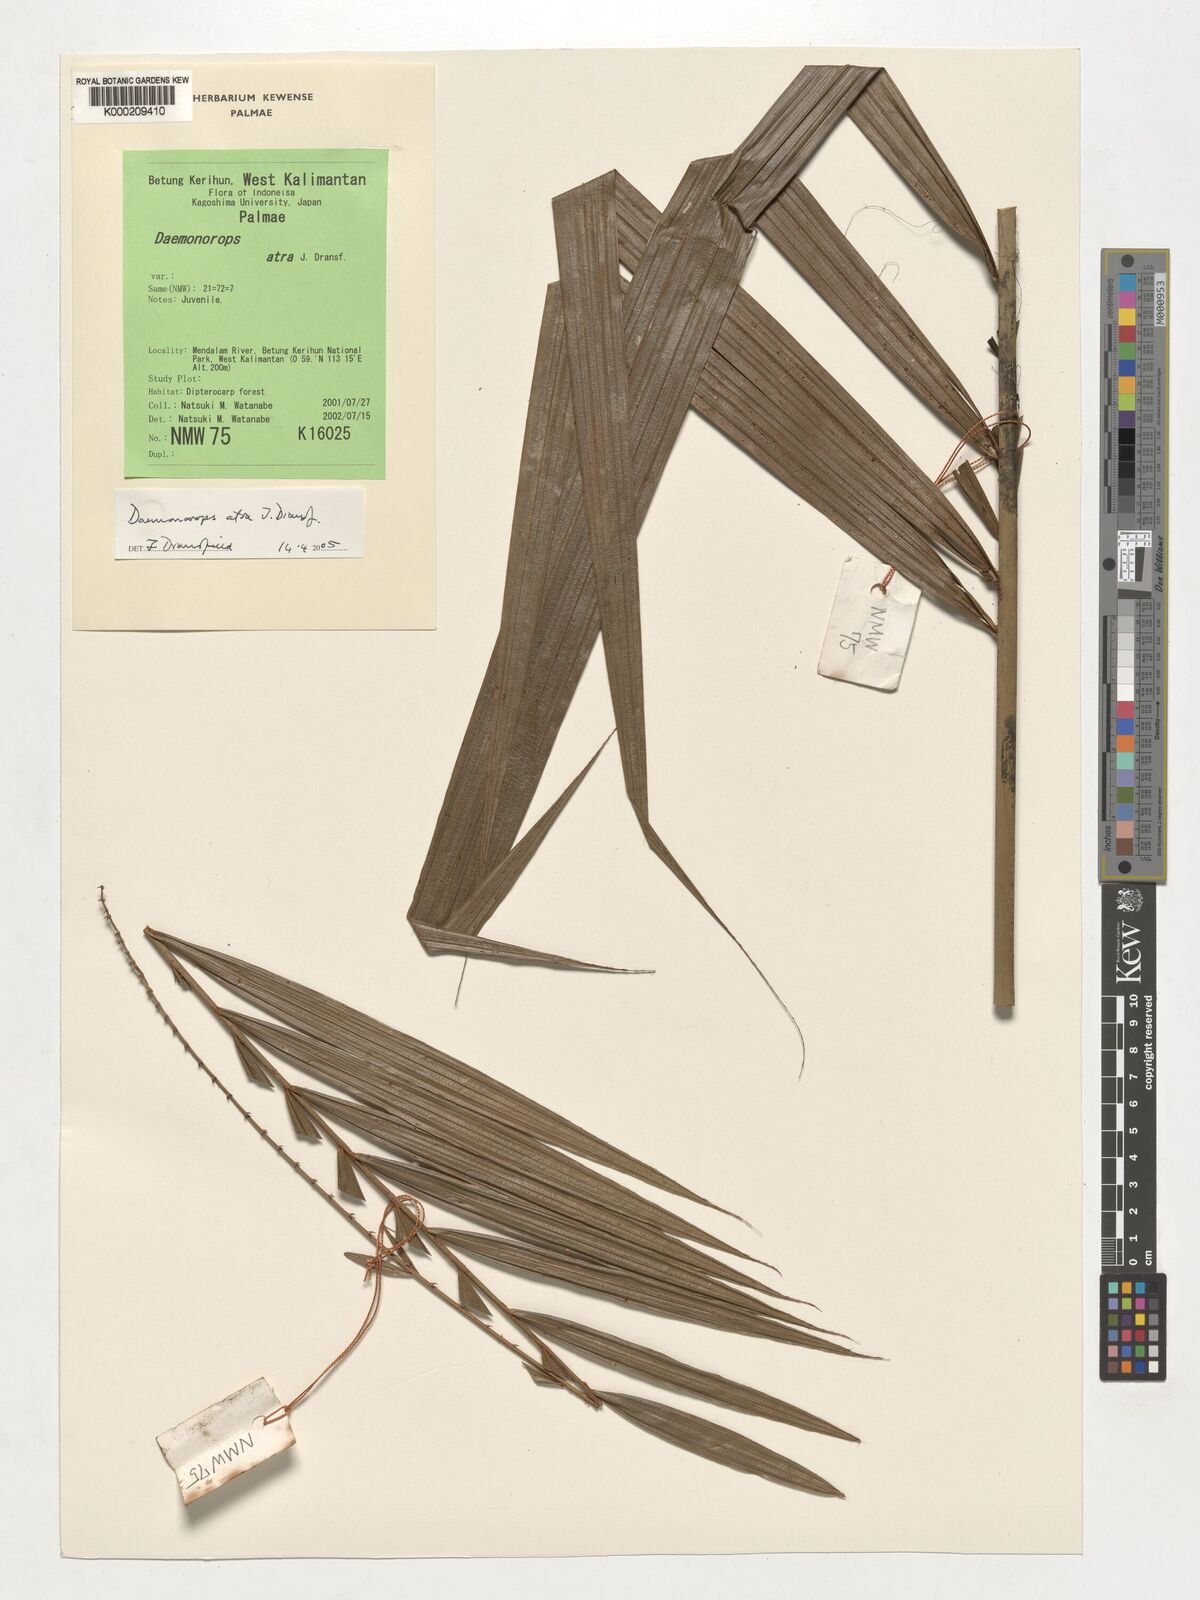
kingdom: Plantae
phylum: Tracheophyta
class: Liliopsida
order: Arecales
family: Arecaceae
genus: Calamus
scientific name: Calamus ater
